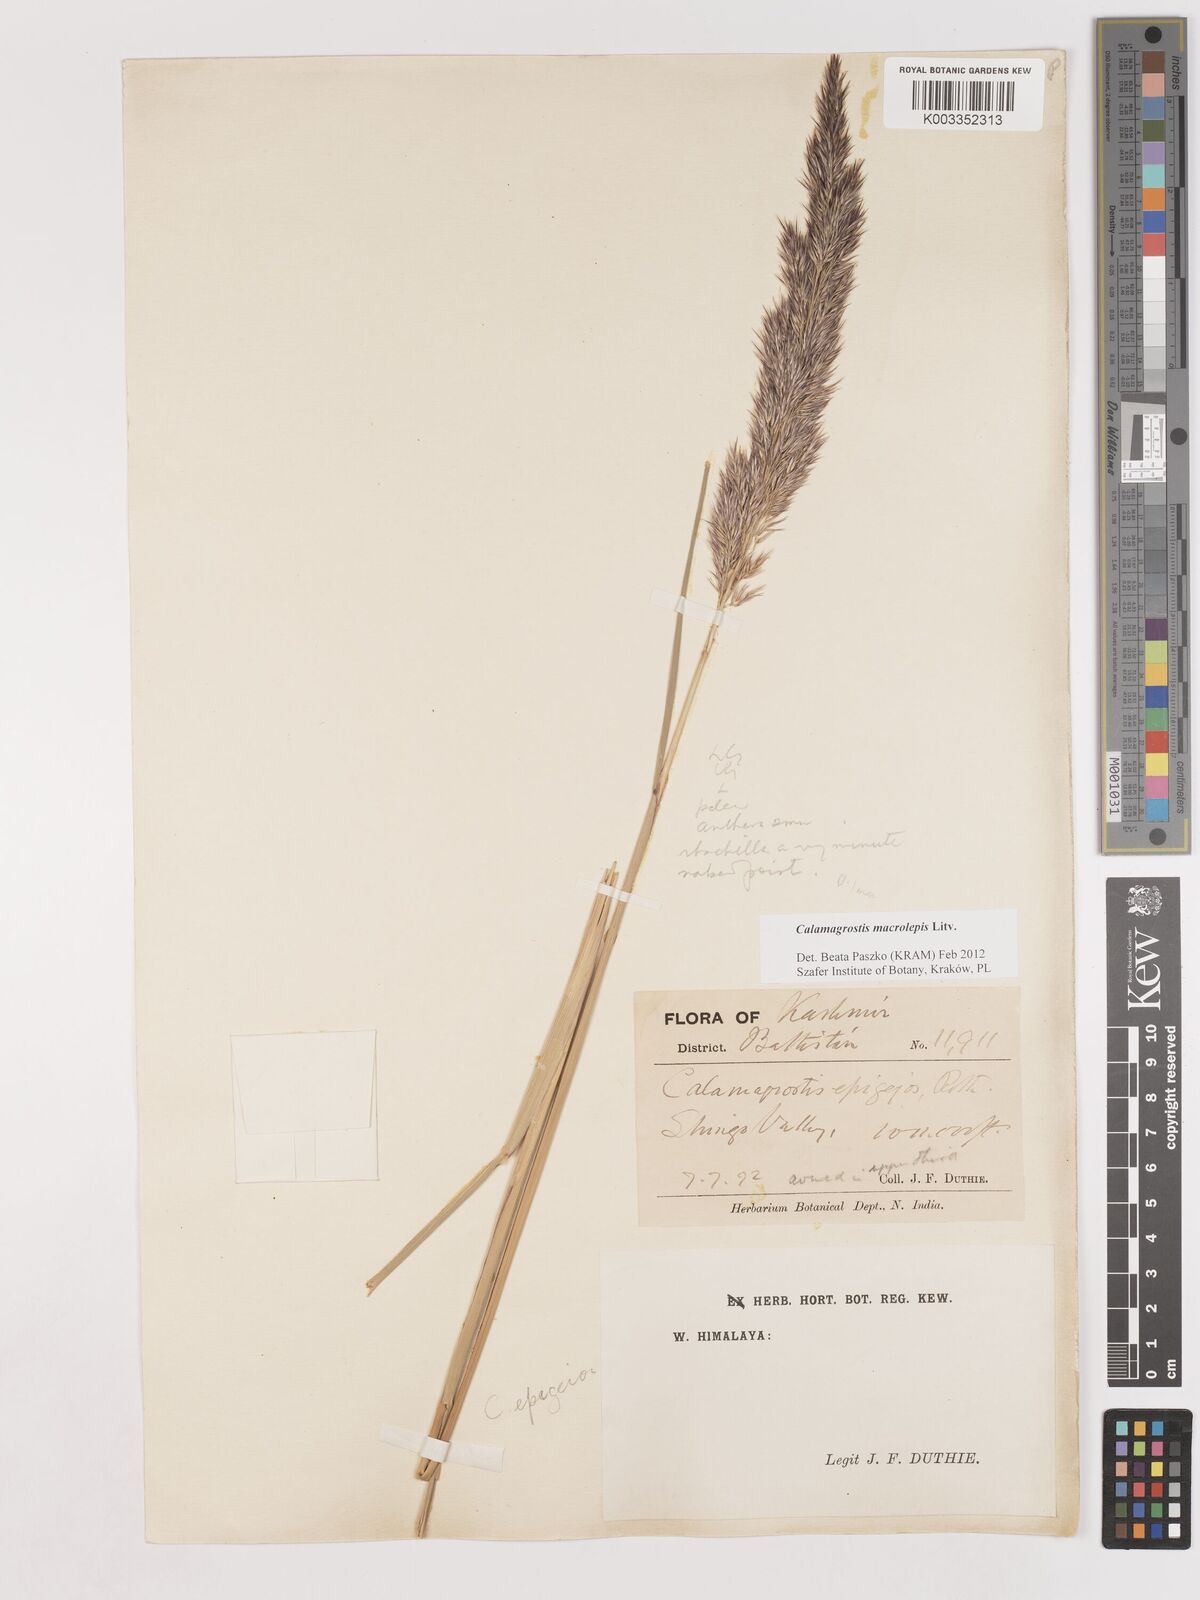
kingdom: Plantae
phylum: Tracheophyta
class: Liliopsida
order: Poales
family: Poaceae
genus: Calamagrostis
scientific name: Calamagrostis epigejos
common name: Wood small-reed
